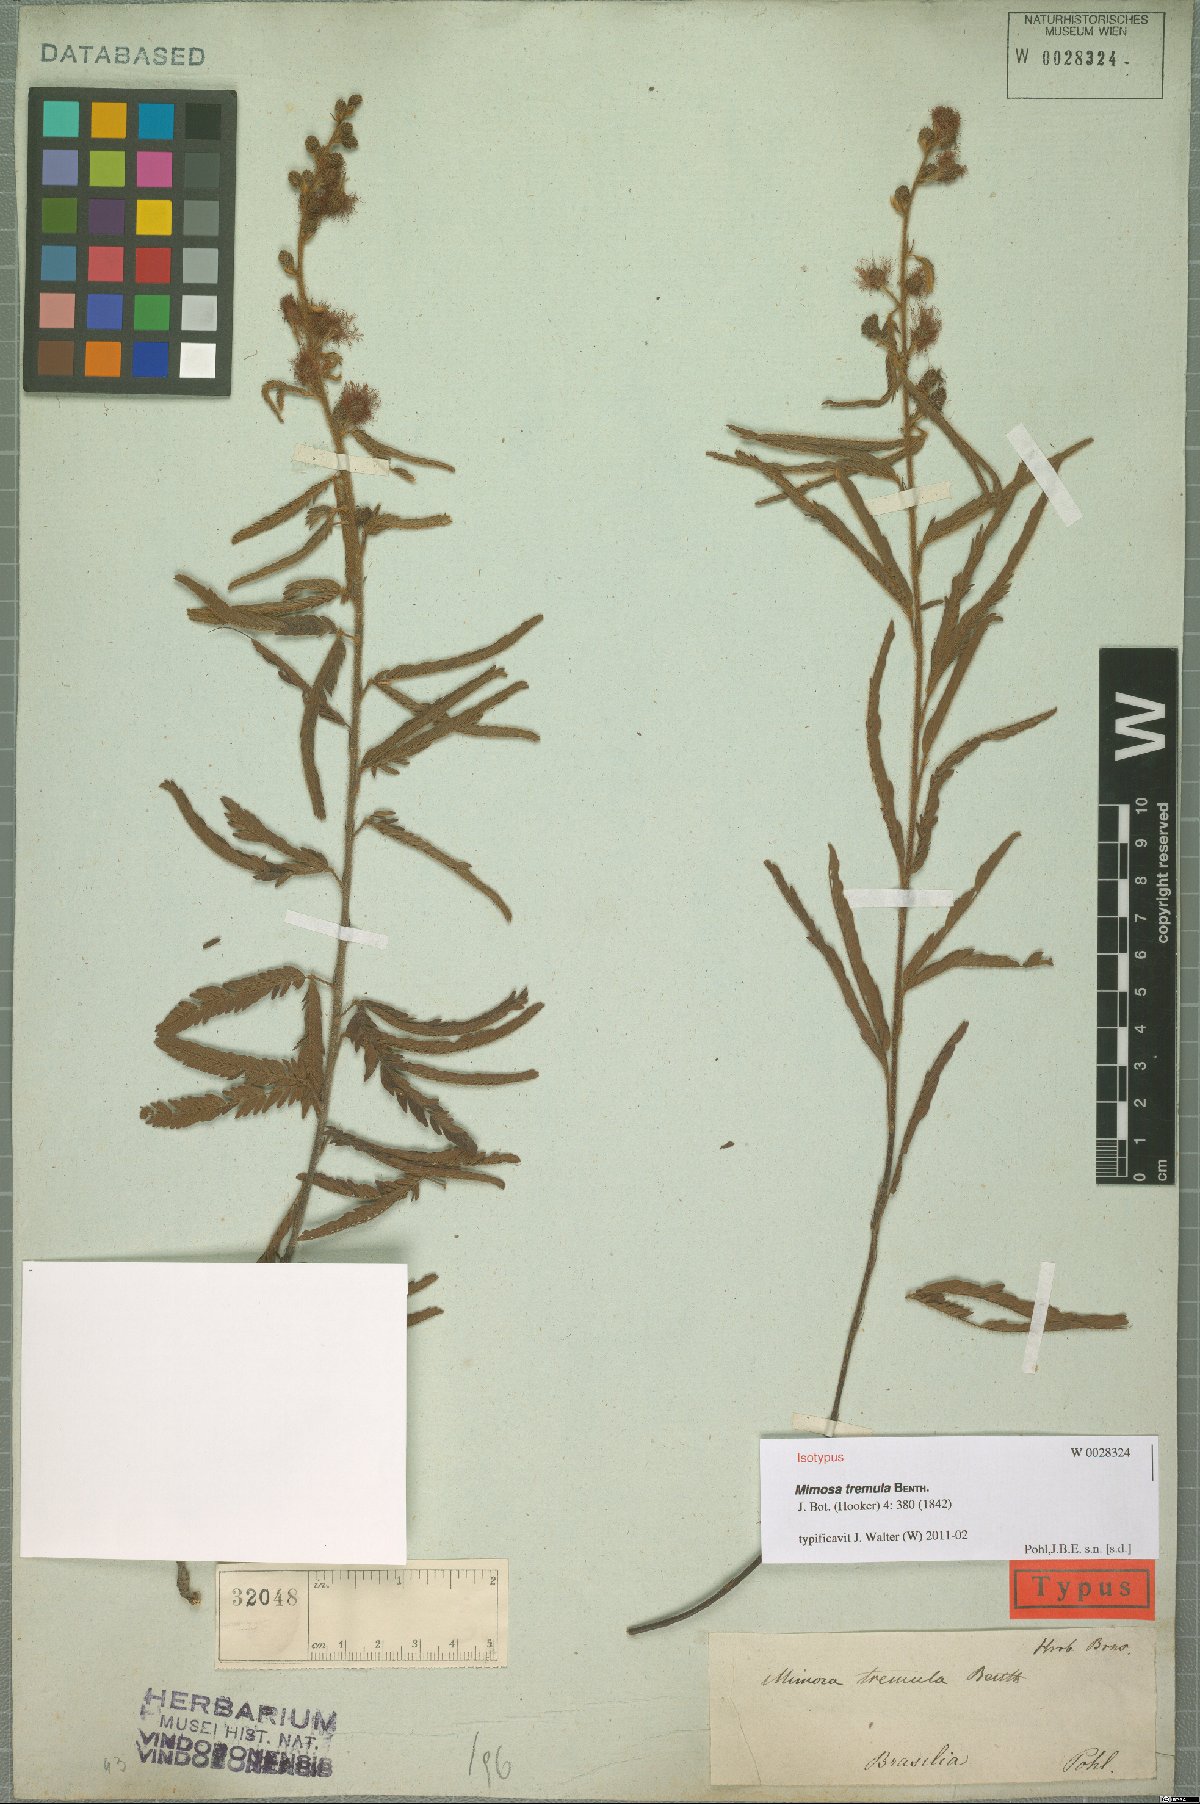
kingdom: Plantae
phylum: Tracheophyta
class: Magnoliopsida
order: Fabales
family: Fabaceae
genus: Mimosa
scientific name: Mimosa xanthocentra
